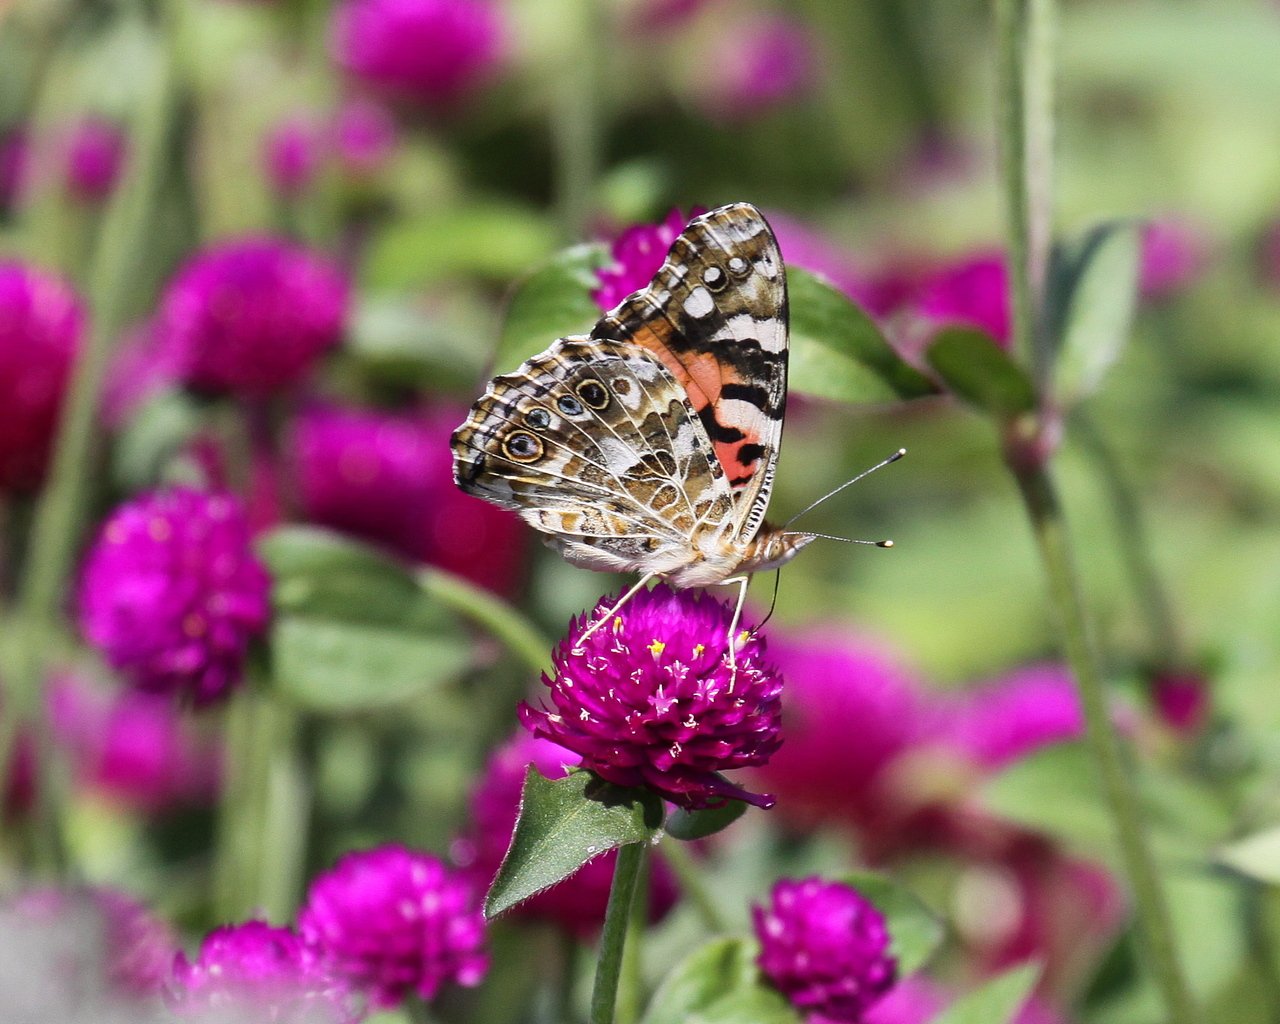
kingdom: Animalia
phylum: Arthropoda
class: Insecta
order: Lepidoptera
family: Nymphalidae
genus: Vanessa
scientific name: Vanessa cardui
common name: Painted Lady
